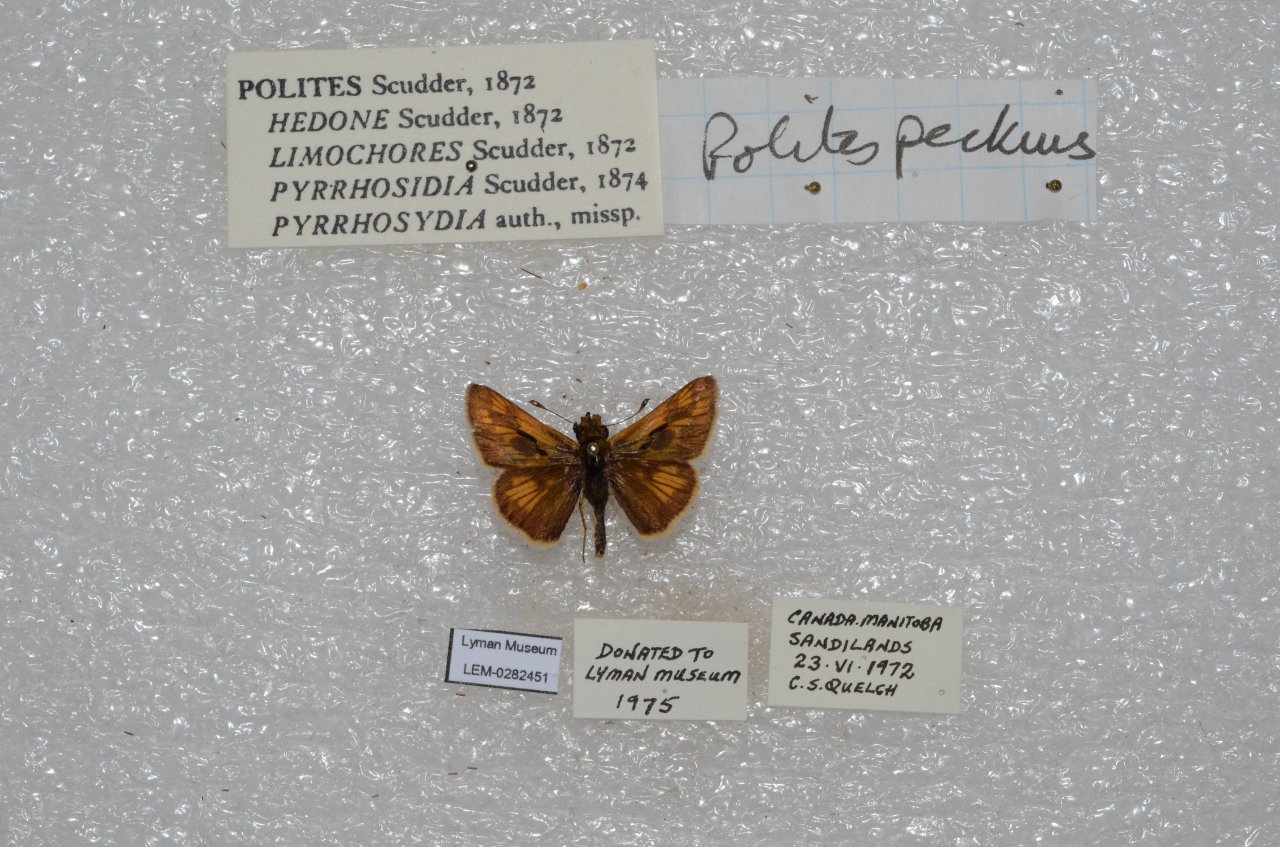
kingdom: Animalia
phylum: Arthropoda
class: Insecta
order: Lepidoptera
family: Hesperiidae
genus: Polites
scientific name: Polites coras
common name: Peck's Skipper
